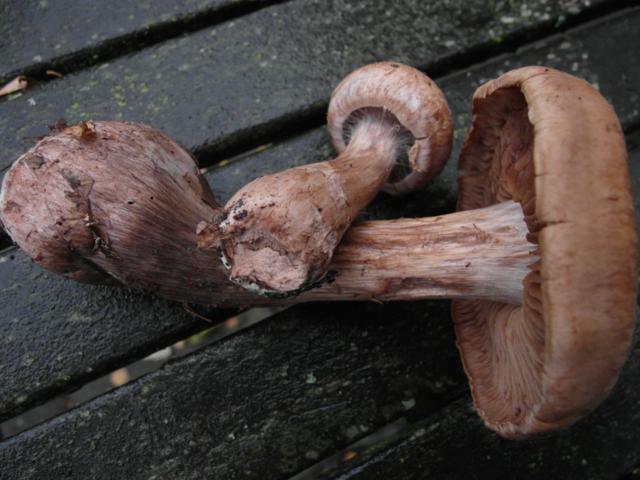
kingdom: Fungi
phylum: Basidiomycota
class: Agaricomycetes
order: Agaricales
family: Cortinariaceae
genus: Cortinarius
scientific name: Cortinarius
